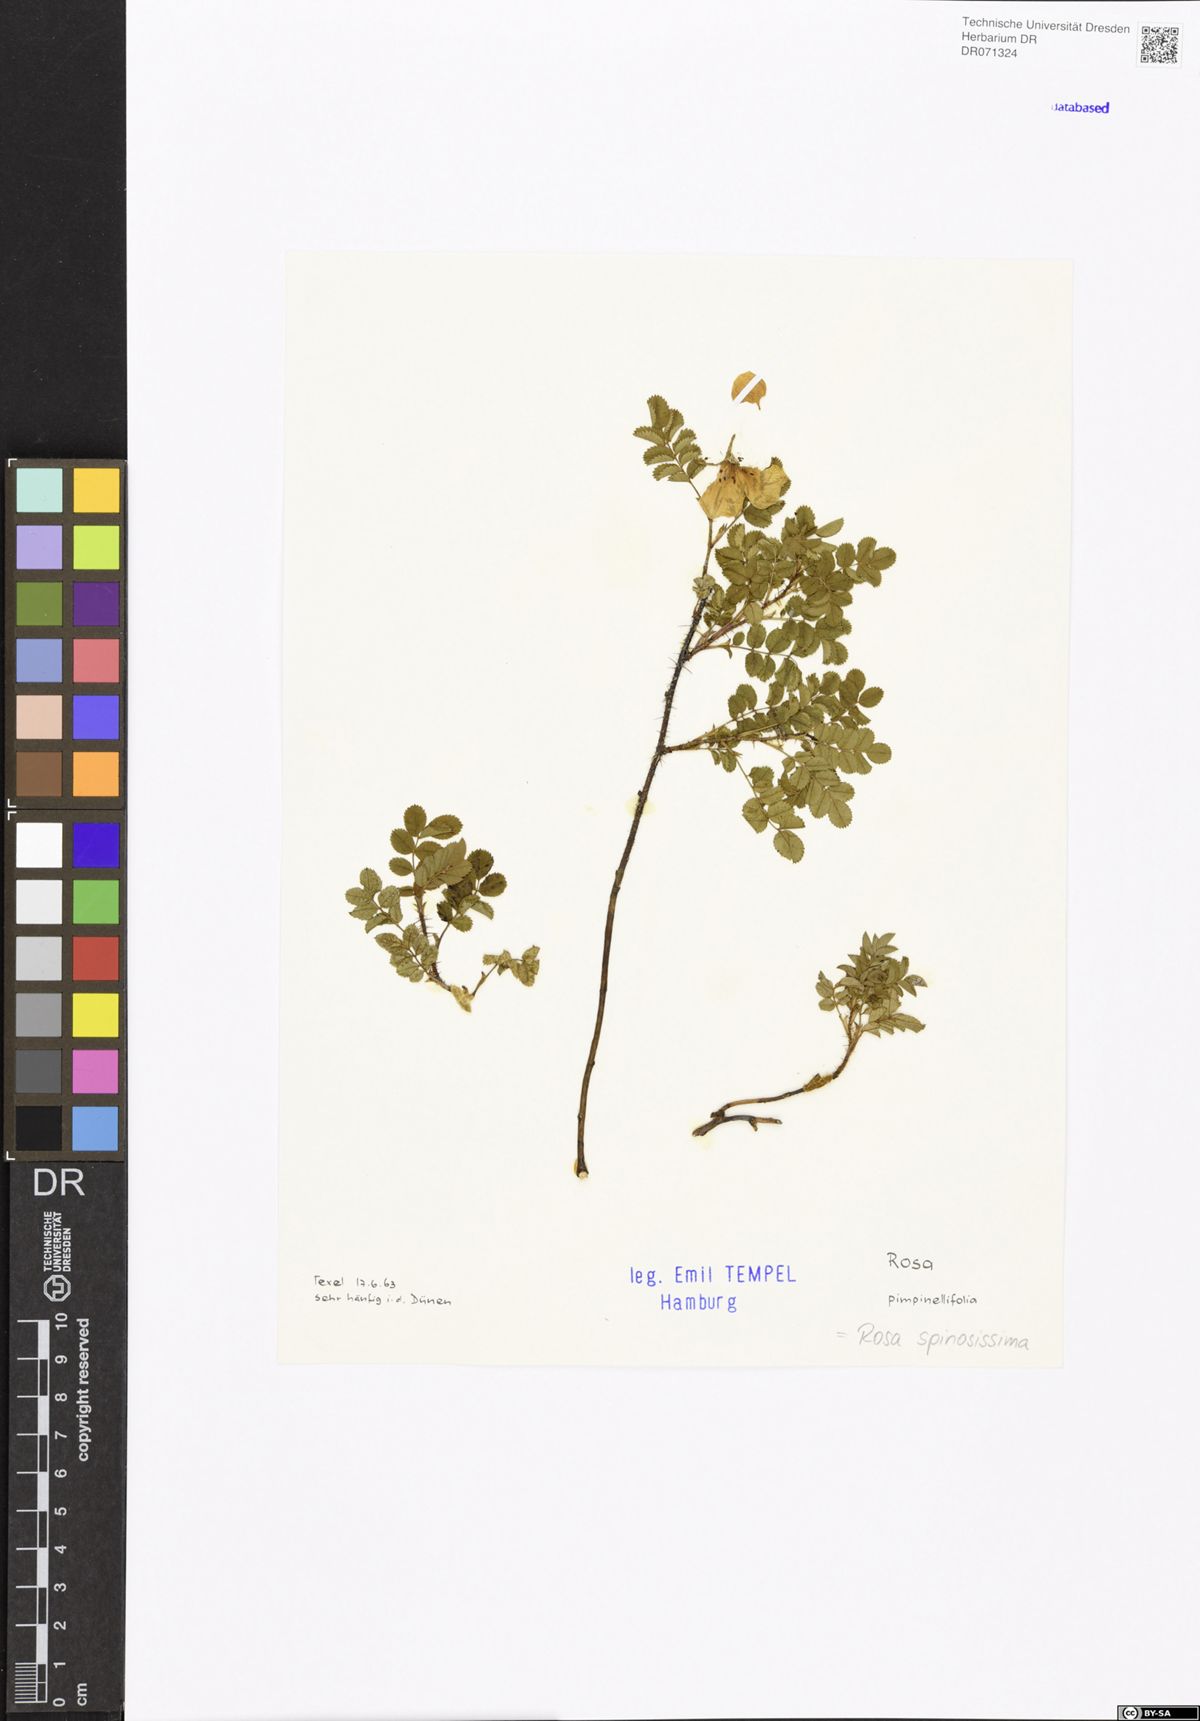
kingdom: Plantae
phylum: Tracheophyta
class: Magnoliopsida
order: Rosales
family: Rosaceae
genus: Rosa
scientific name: Rosa spinosissima
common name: Burnet rose
